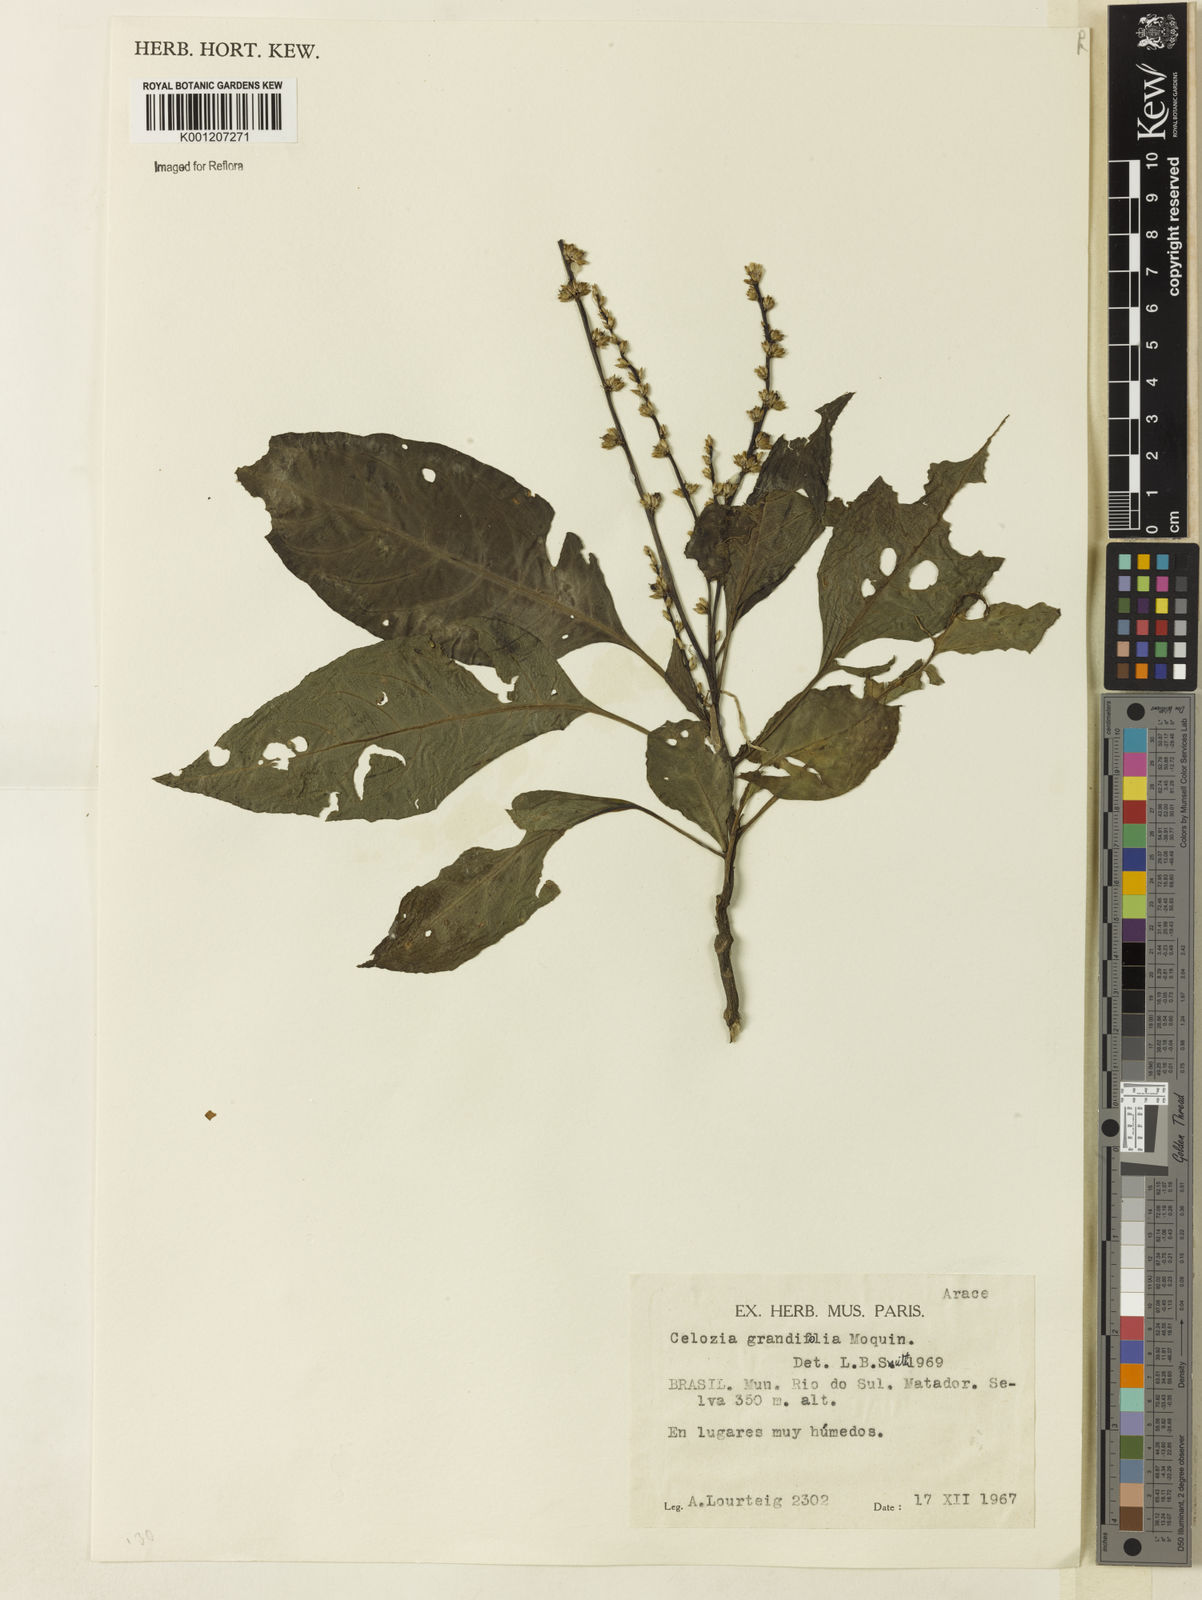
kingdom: Plantae
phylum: Tracheophyta
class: Magnoliopsida
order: Caryophyllales
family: Amaranthaceae
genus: Celosia
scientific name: Celosia grandifolia
